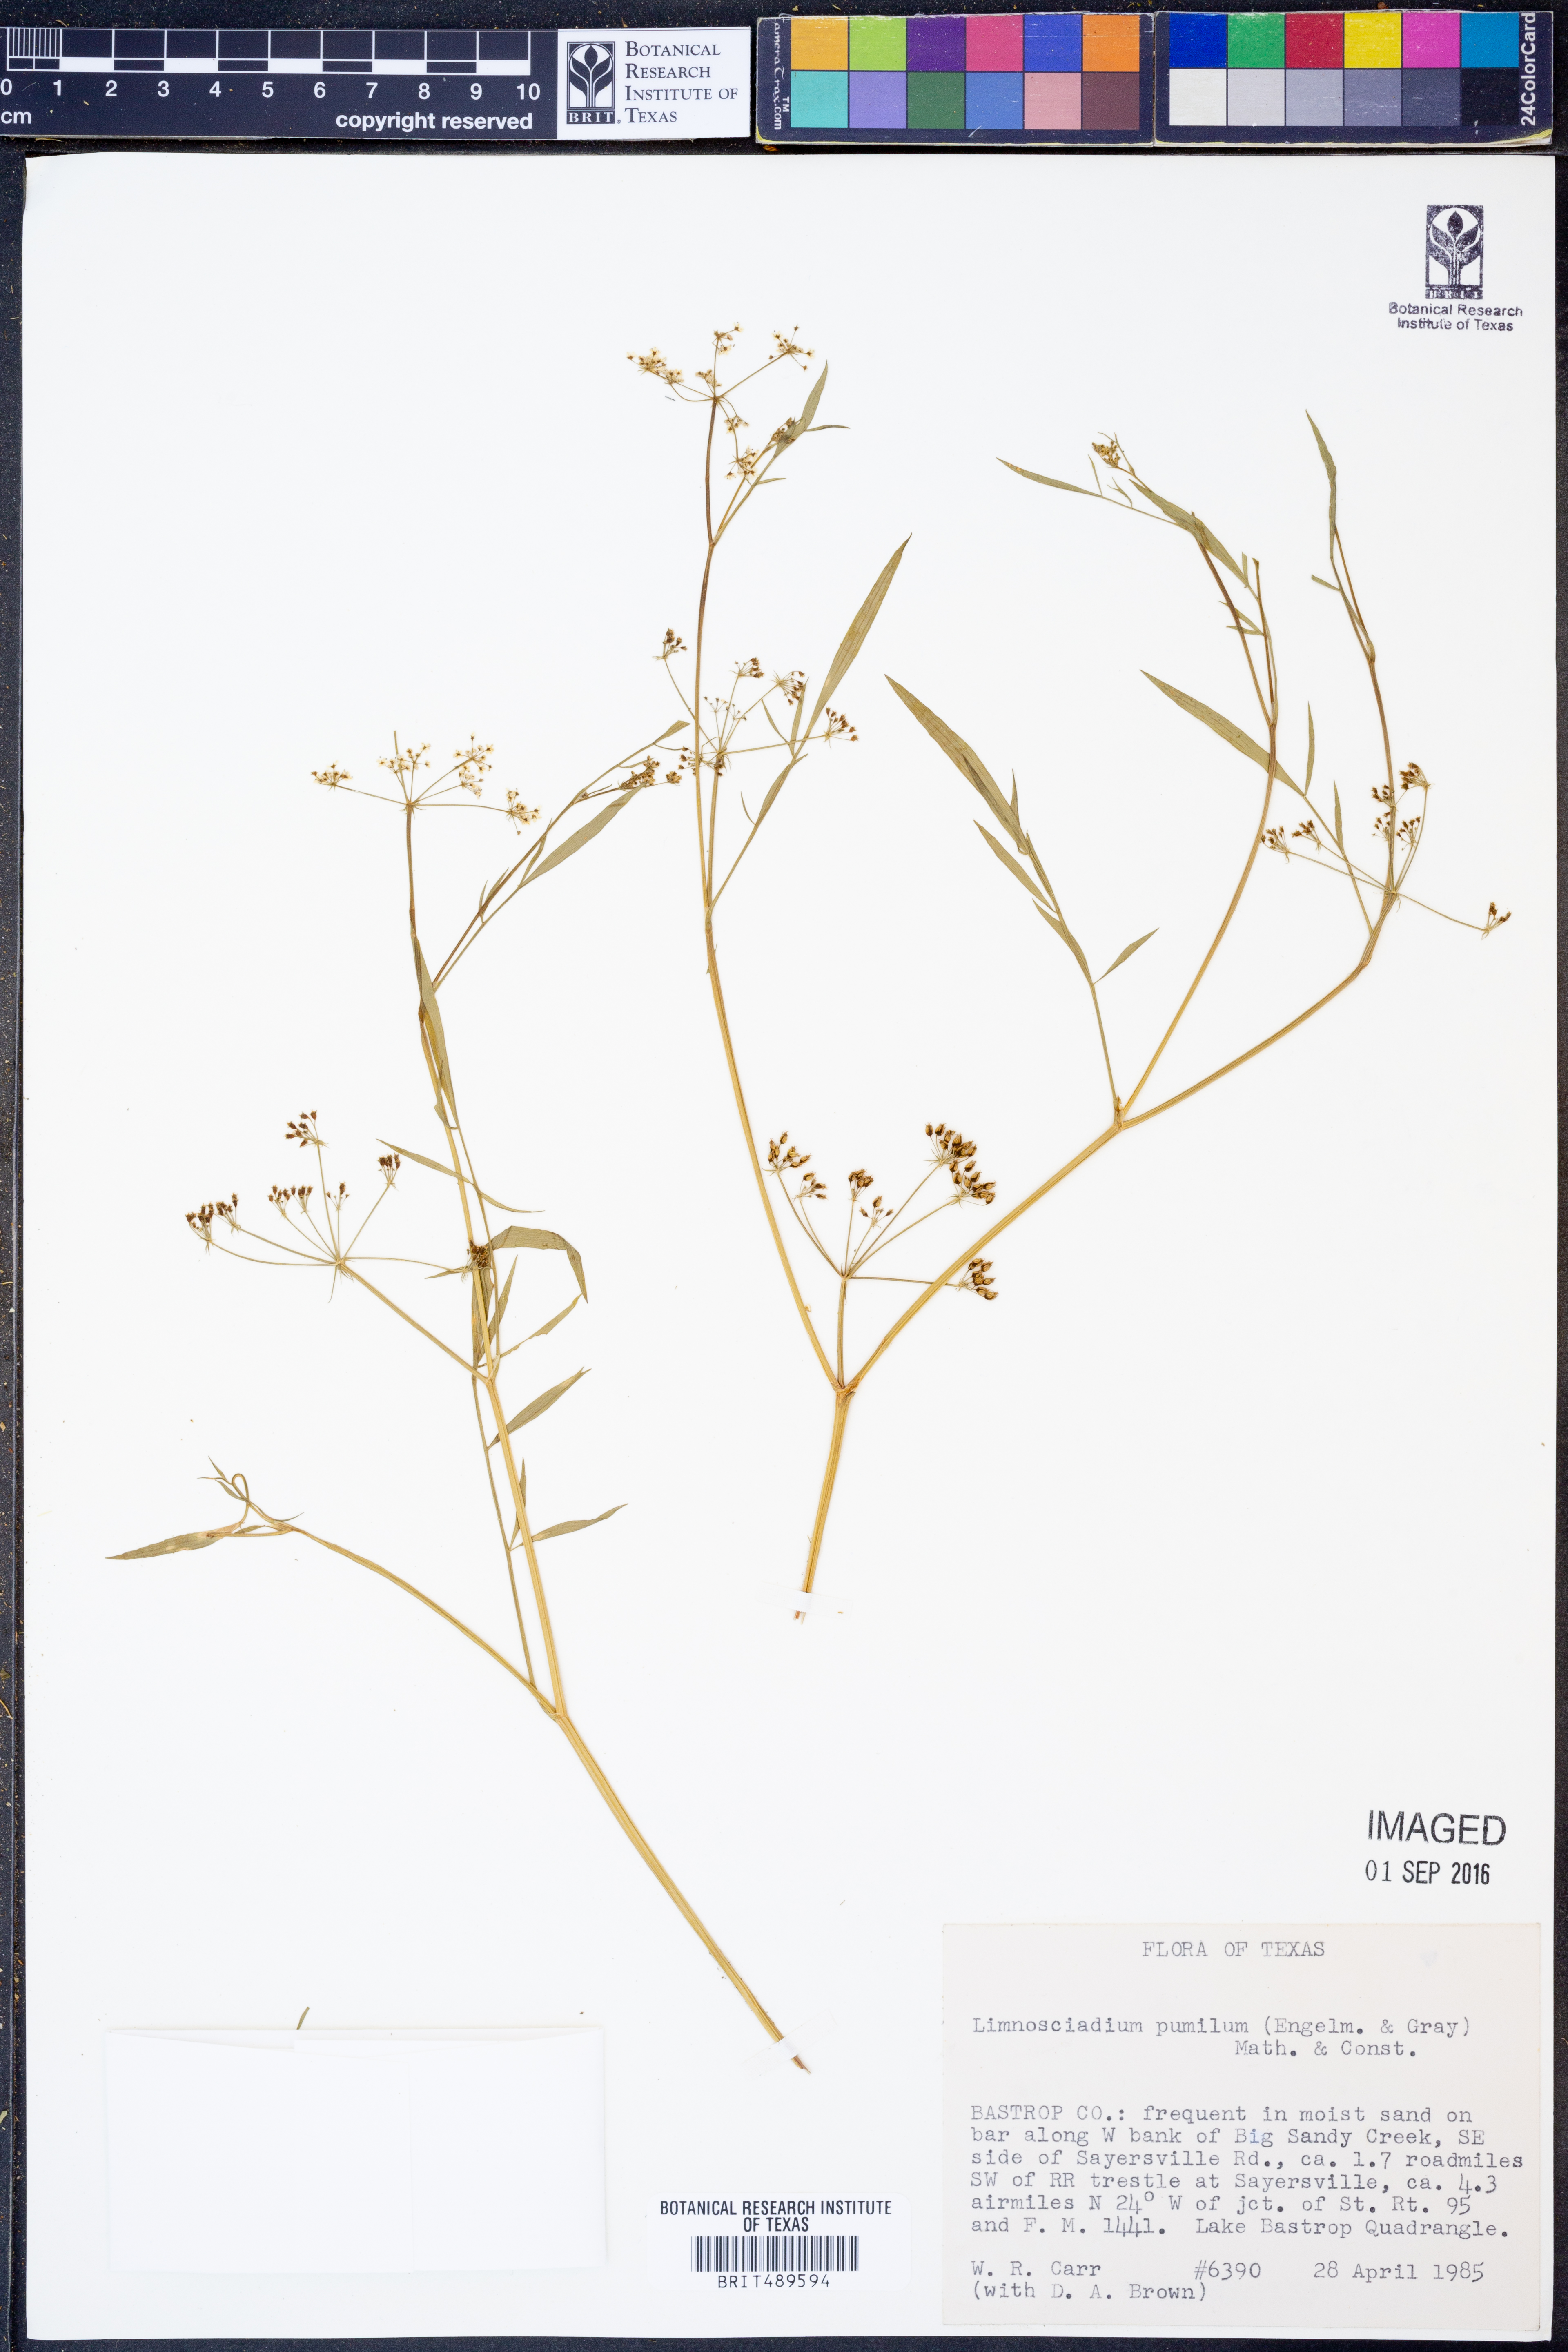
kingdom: Plantae
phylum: Tracheophyta
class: Magnoliopsida
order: Apiales
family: Apiaceae
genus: Limnosciadium
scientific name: Limnosciadium pinnatum
